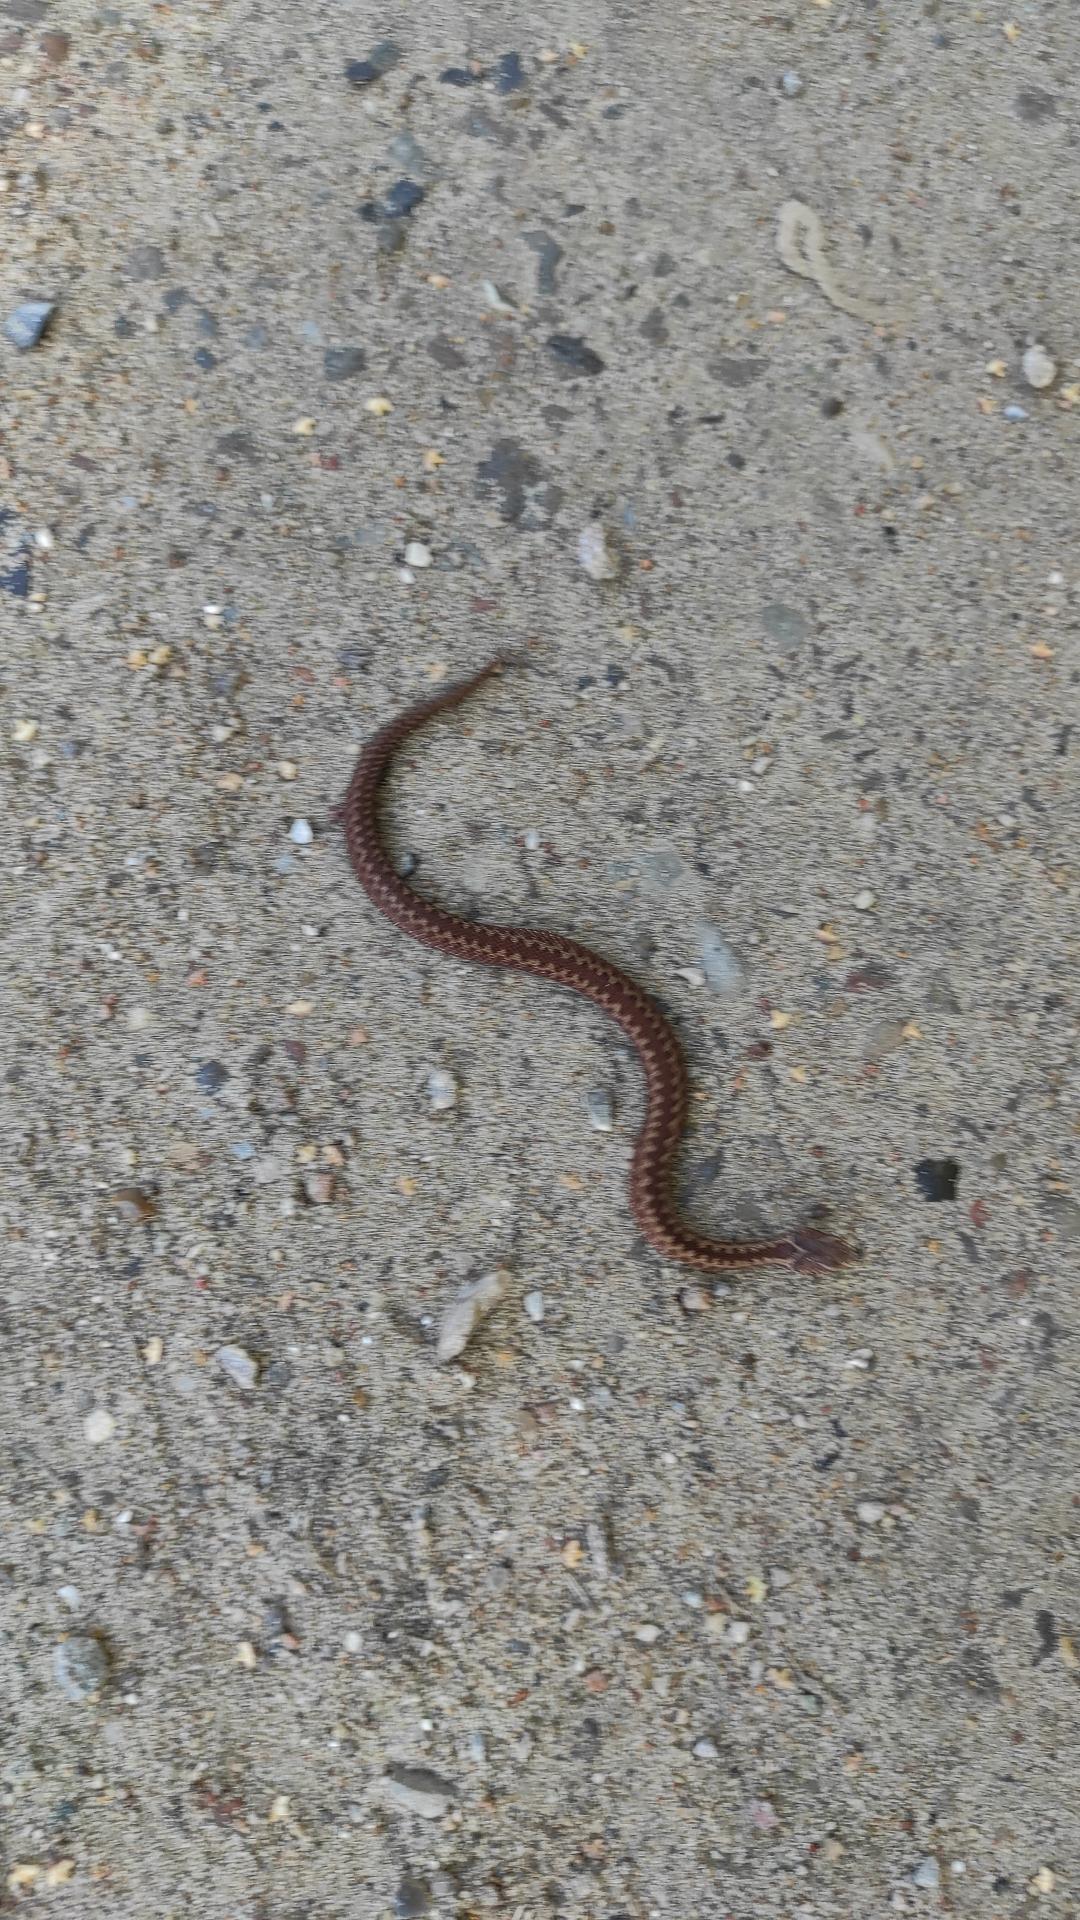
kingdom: Animalia
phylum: Chordata
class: Squamata
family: Viperidae
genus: Vipera
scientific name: Vipera berus
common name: Hugorm
